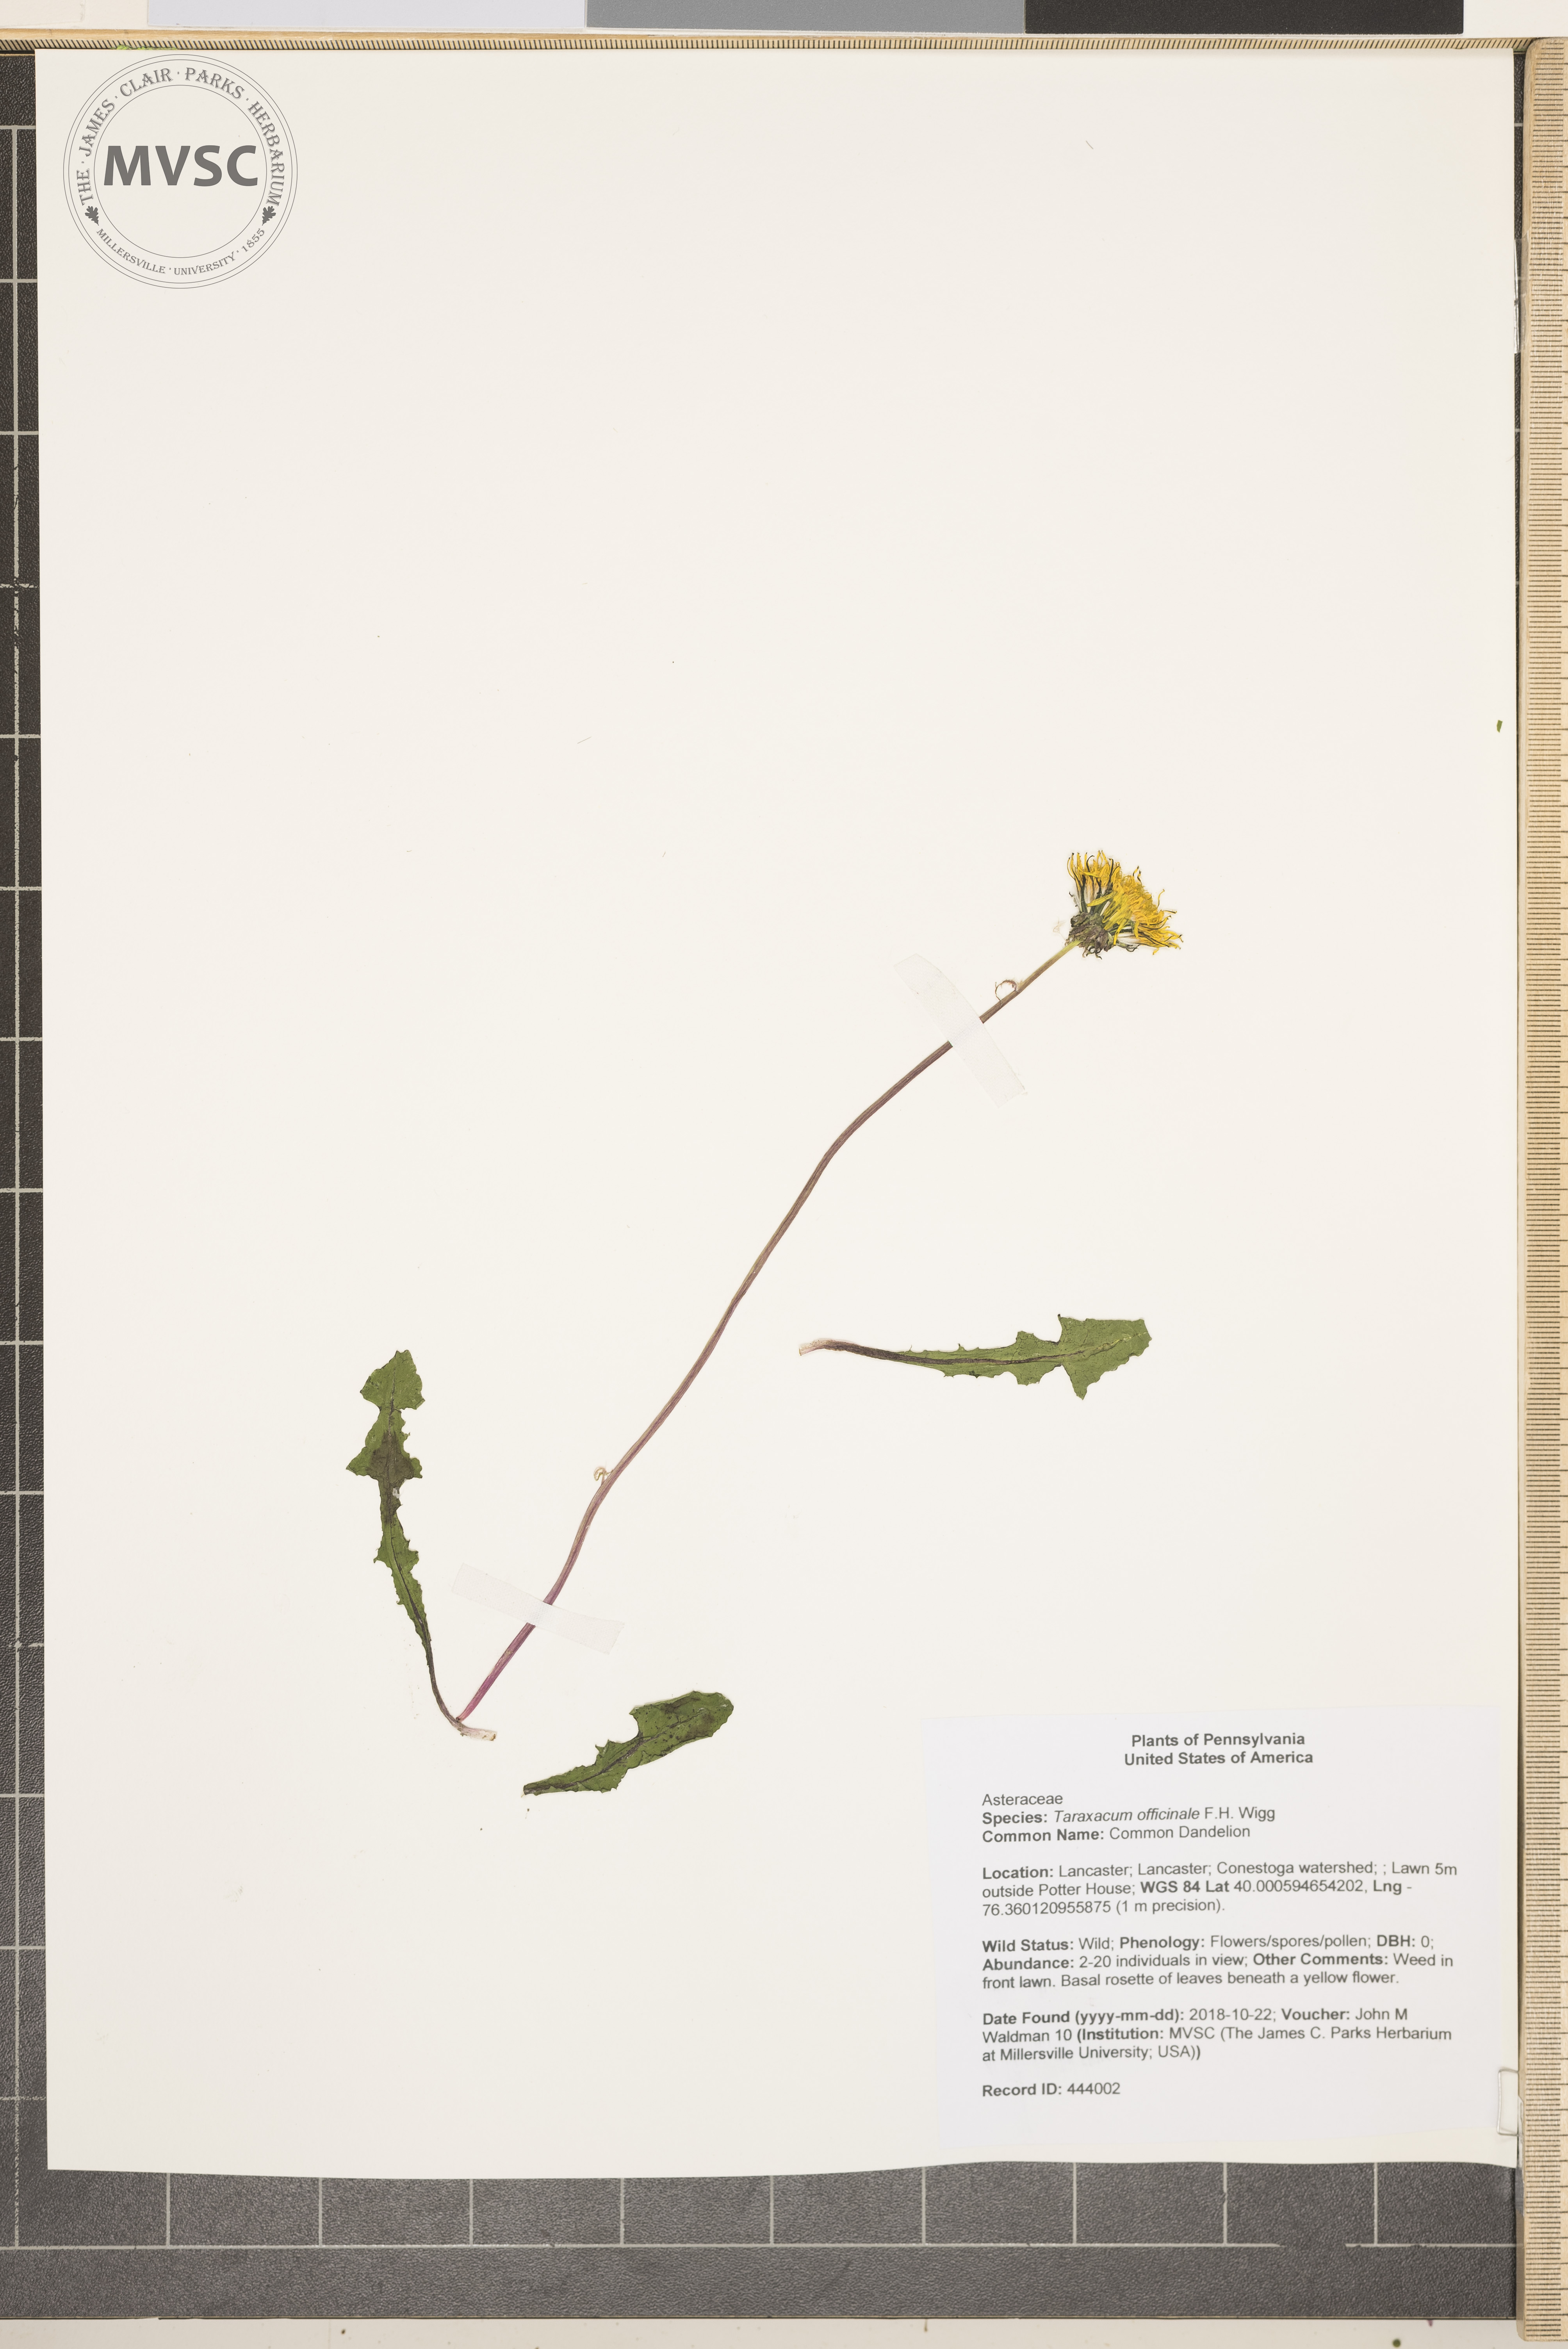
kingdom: Plantae
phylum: Tracheophyta
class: Magnoliopsida
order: Asterales
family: Asteraceae
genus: Taraxacum
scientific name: Taraxacum officinale
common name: Common Dandelion
